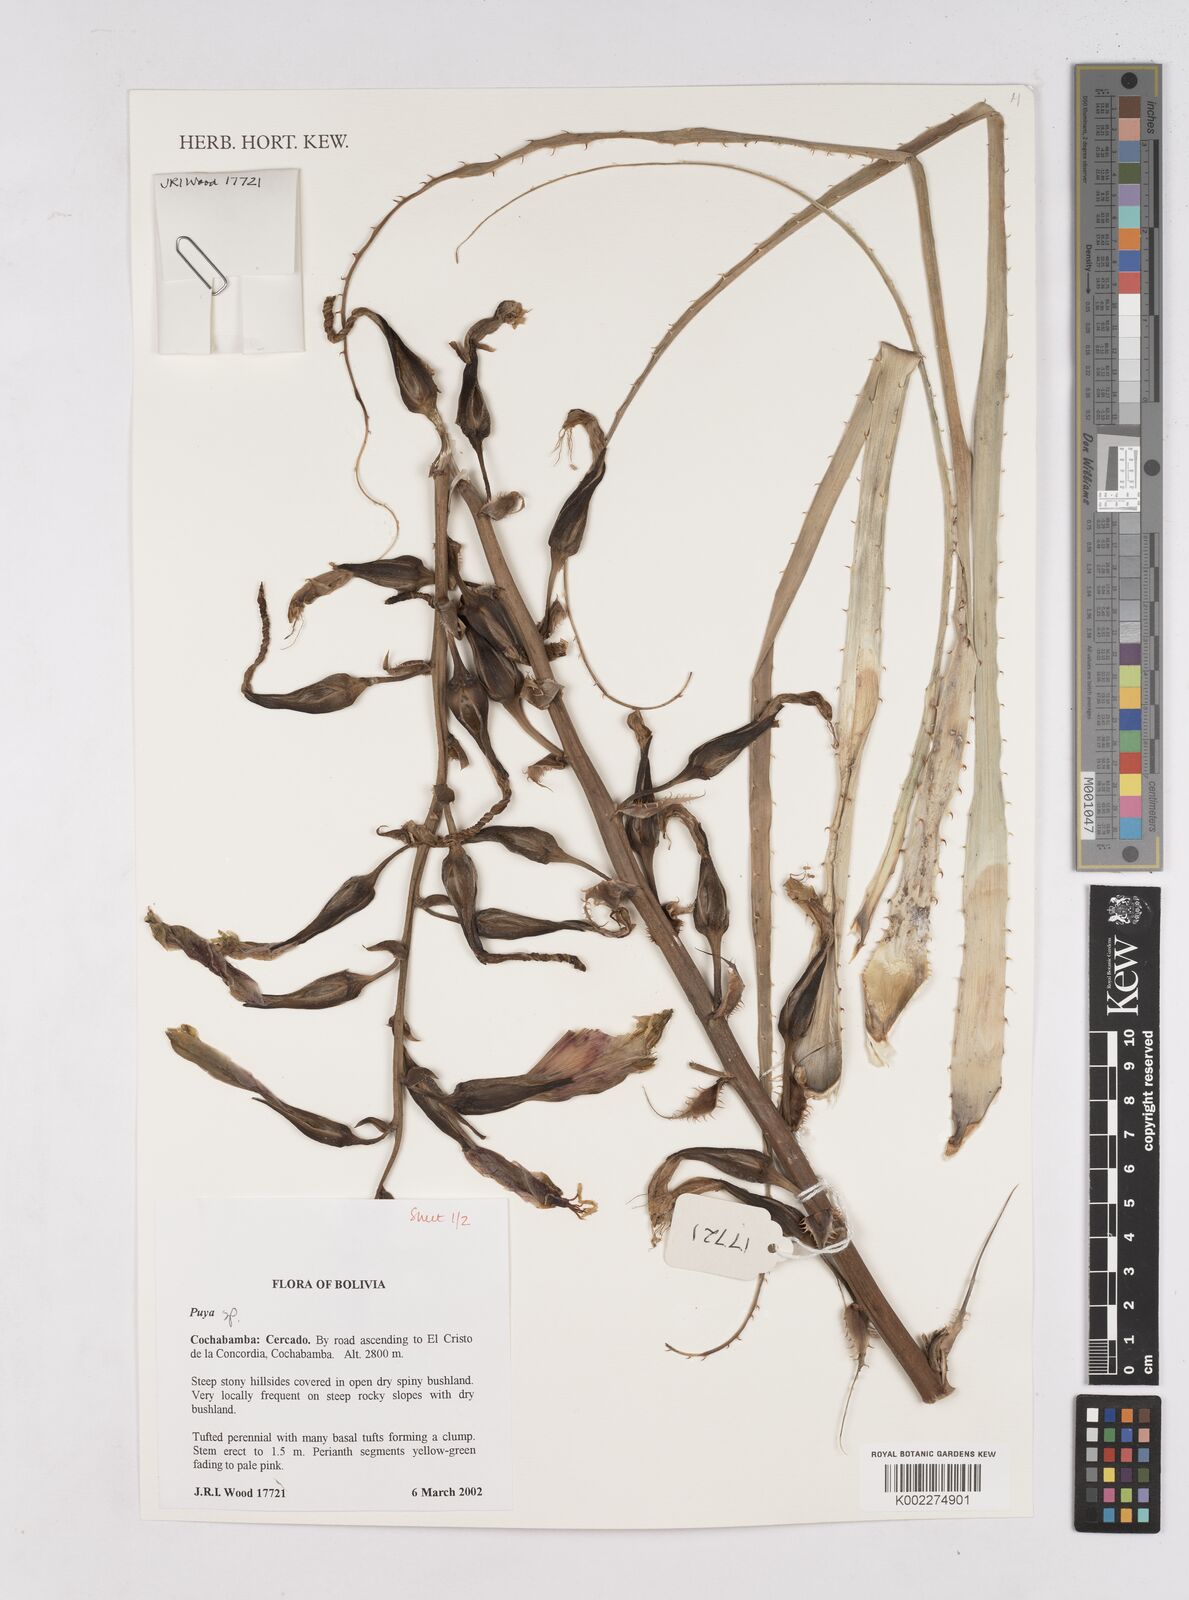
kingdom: Plantae
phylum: Tracheophyta
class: Liliopsida
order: Poales
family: Bromeliaceae
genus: Puya
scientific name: Puya
